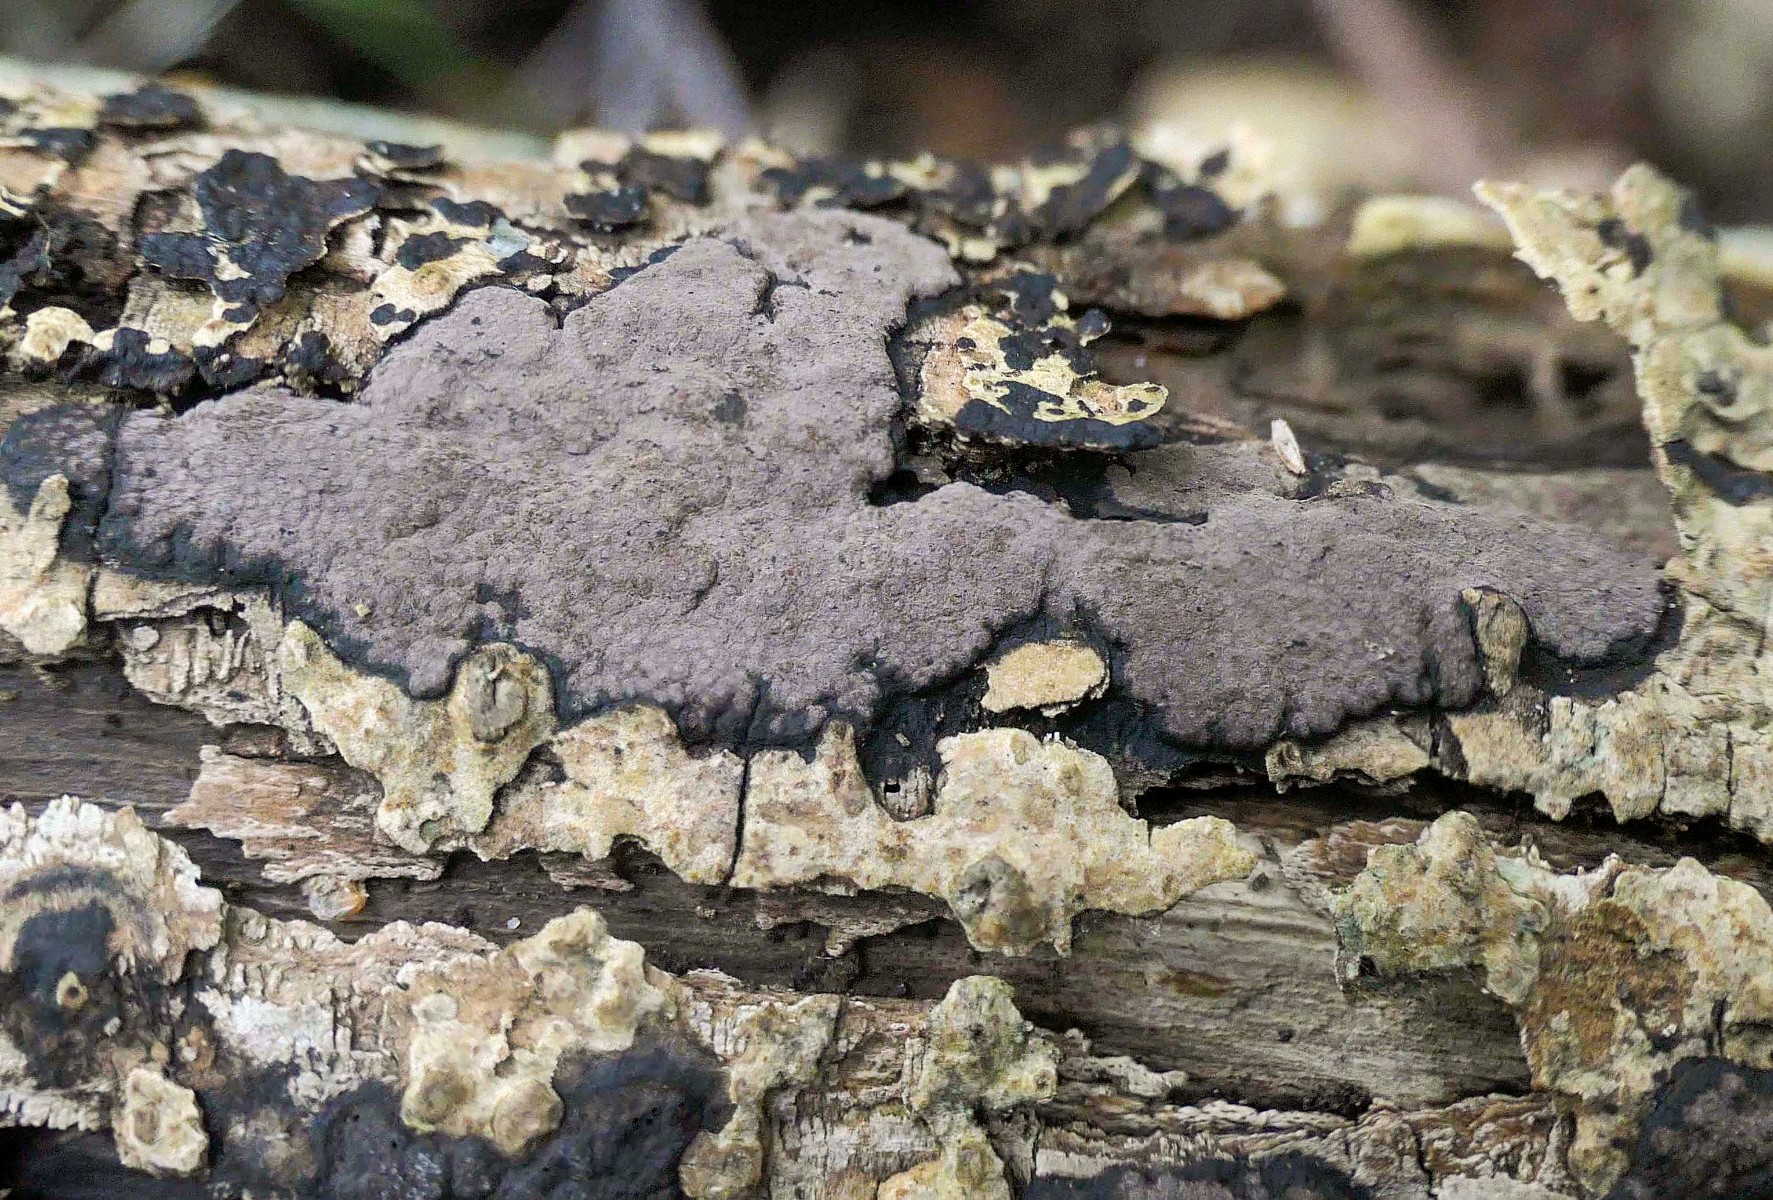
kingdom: Fungi
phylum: Ascomycota
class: Sordariomycetes
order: Xylariales
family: Hypoxylaceae
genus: Hypoxylon
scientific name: Hypoxylon petriniae
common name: nedsænket kulbær
